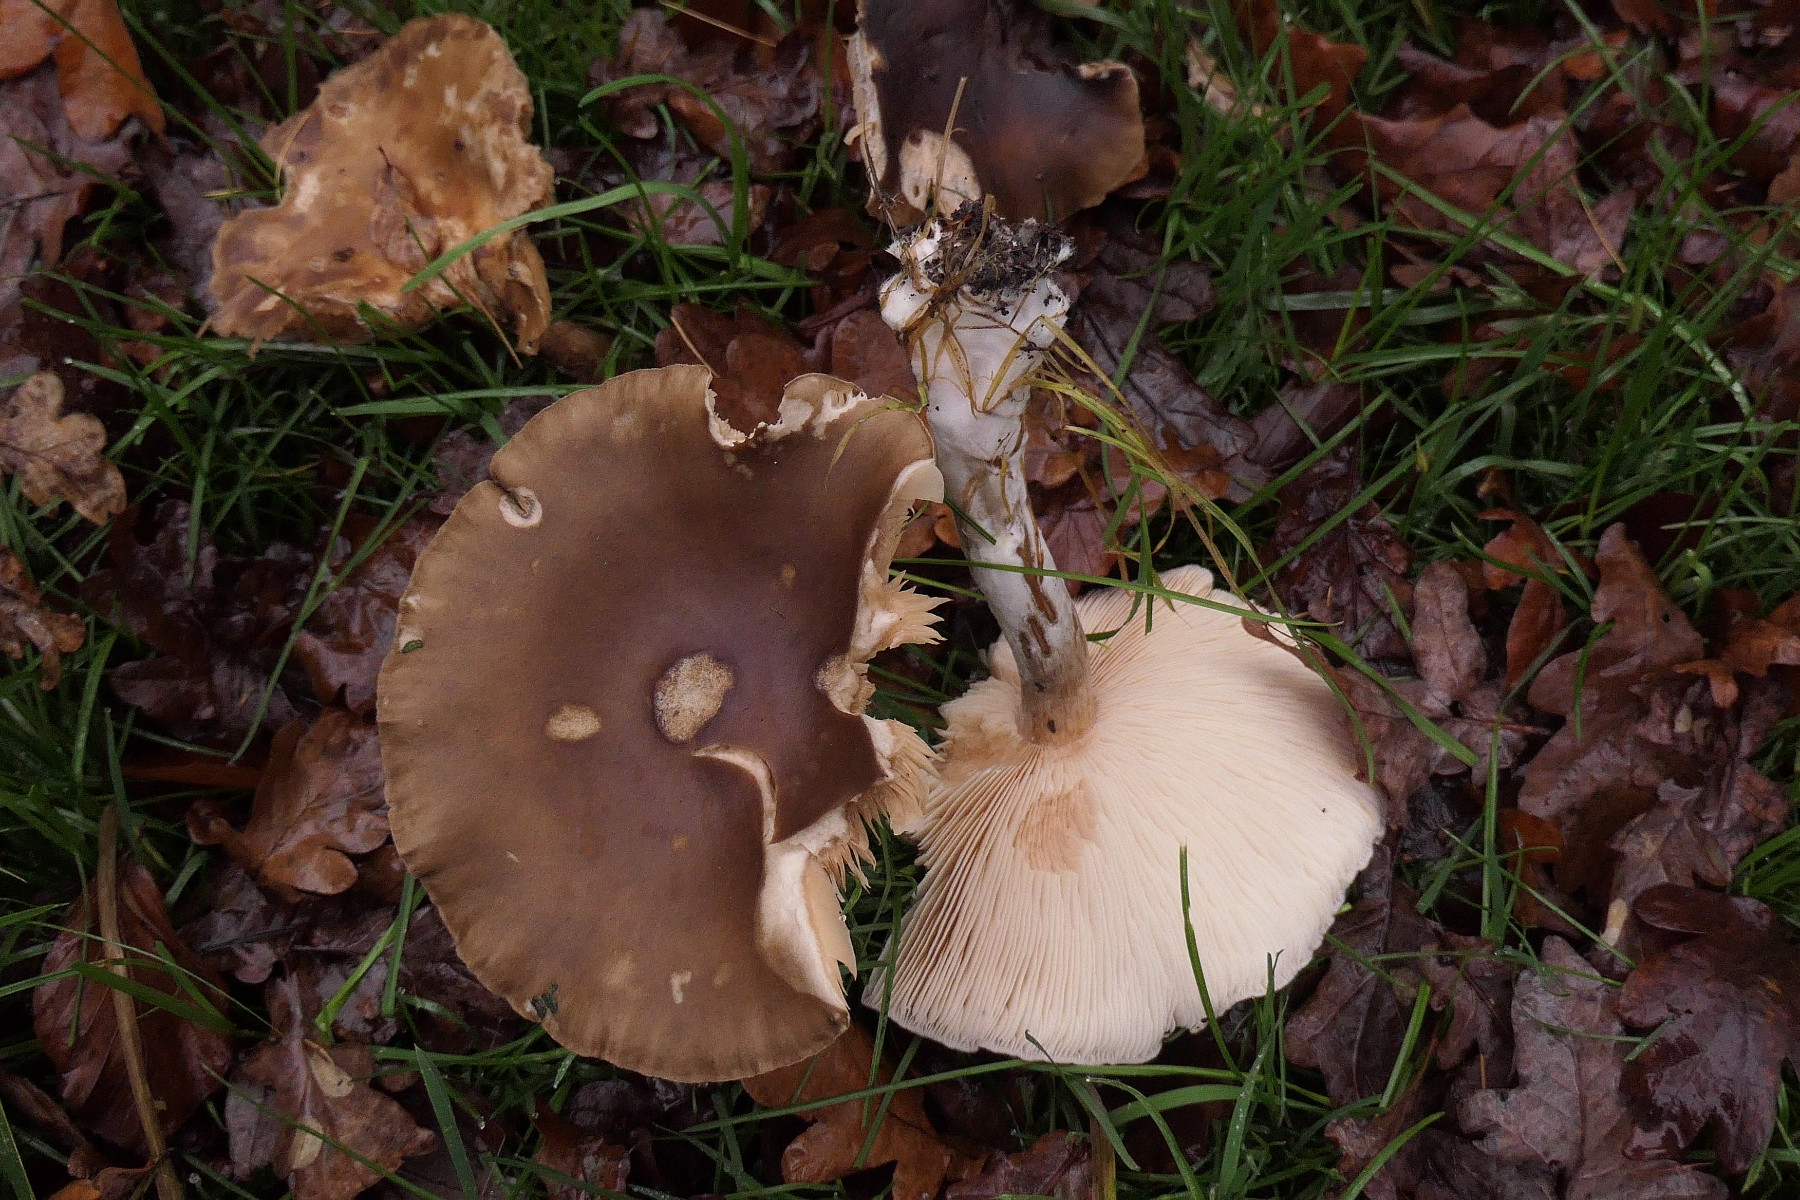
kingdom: Fungi
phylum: Basidiomycota
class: Agaricomycetes
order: Agaricales
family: Tricholomataceae
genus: Melanoleuca
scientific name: Melanoleuca cognata
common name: gyldengrå munkehat
